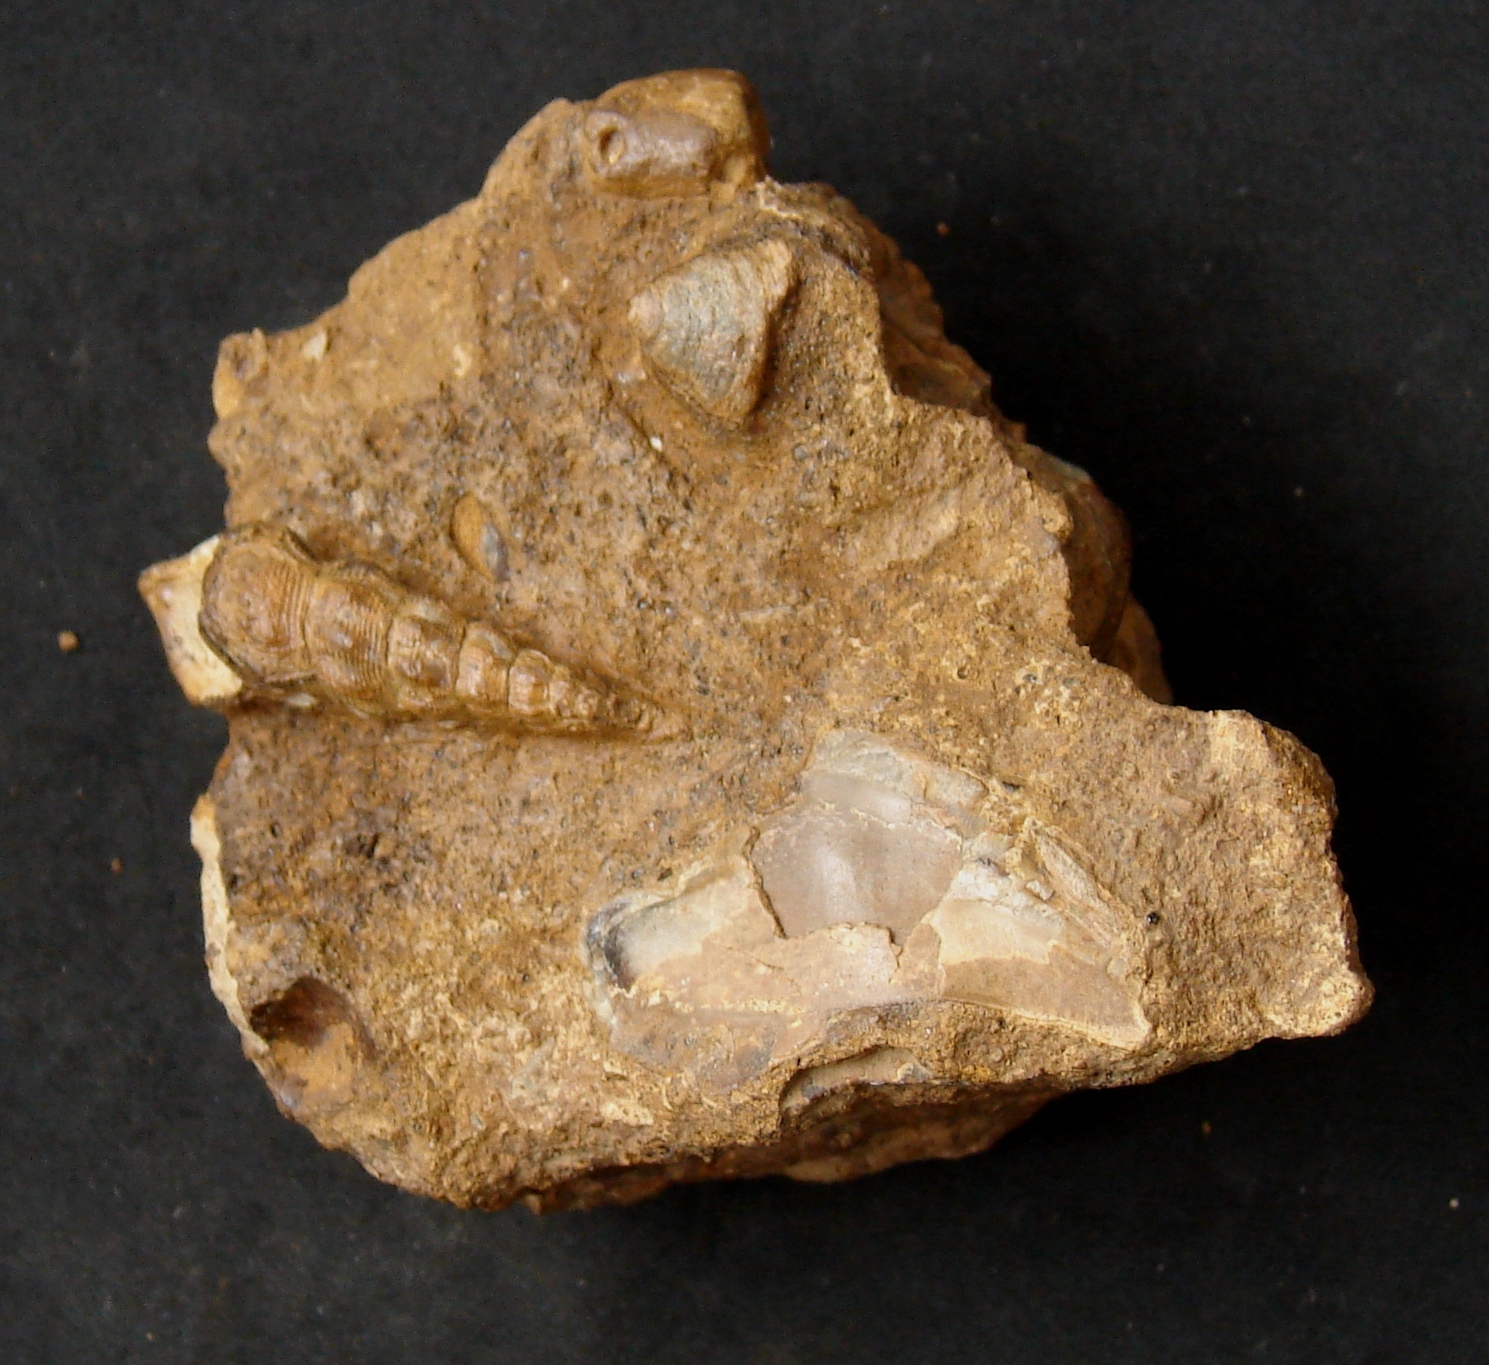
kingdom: Animalia
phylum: Mollusca
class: Gastropoda
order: Pleurotomariida
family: Pleurotomariidae
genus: Bathrotomaria
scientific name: Bathrotomaria Pleurotomaria subreticulata
